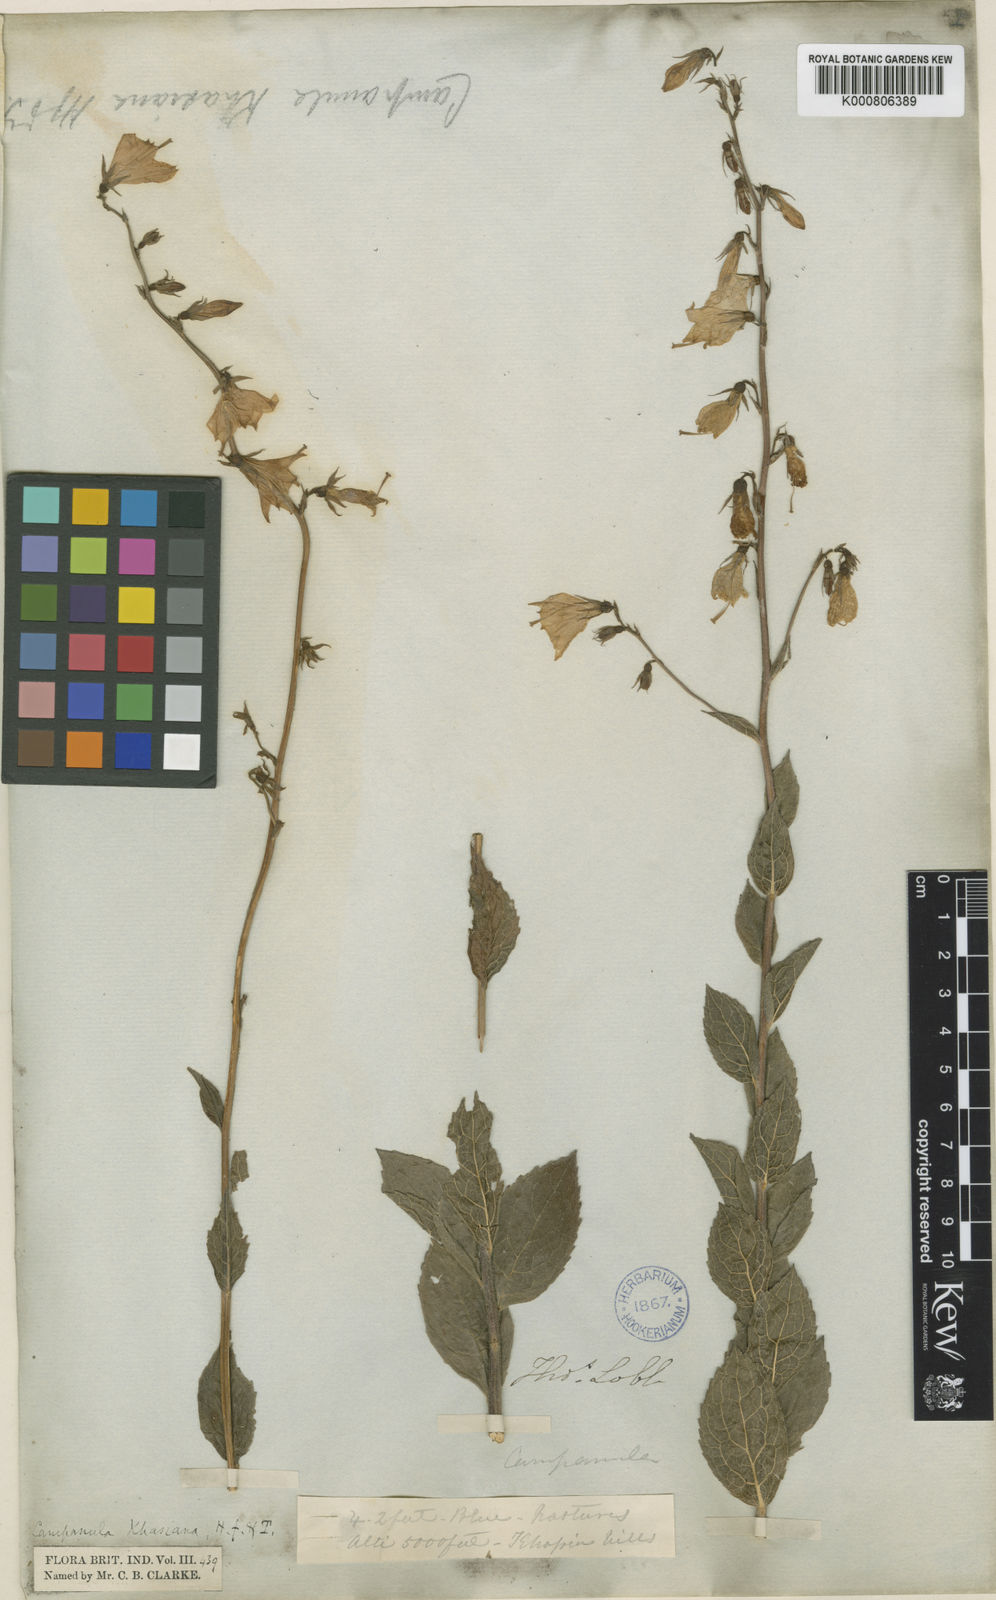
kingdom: Plantae
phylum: Tracheophyta
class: Magnoliopsida
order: Asterales
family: Campanulaceae
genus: Adenophora
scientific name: Adenophora
